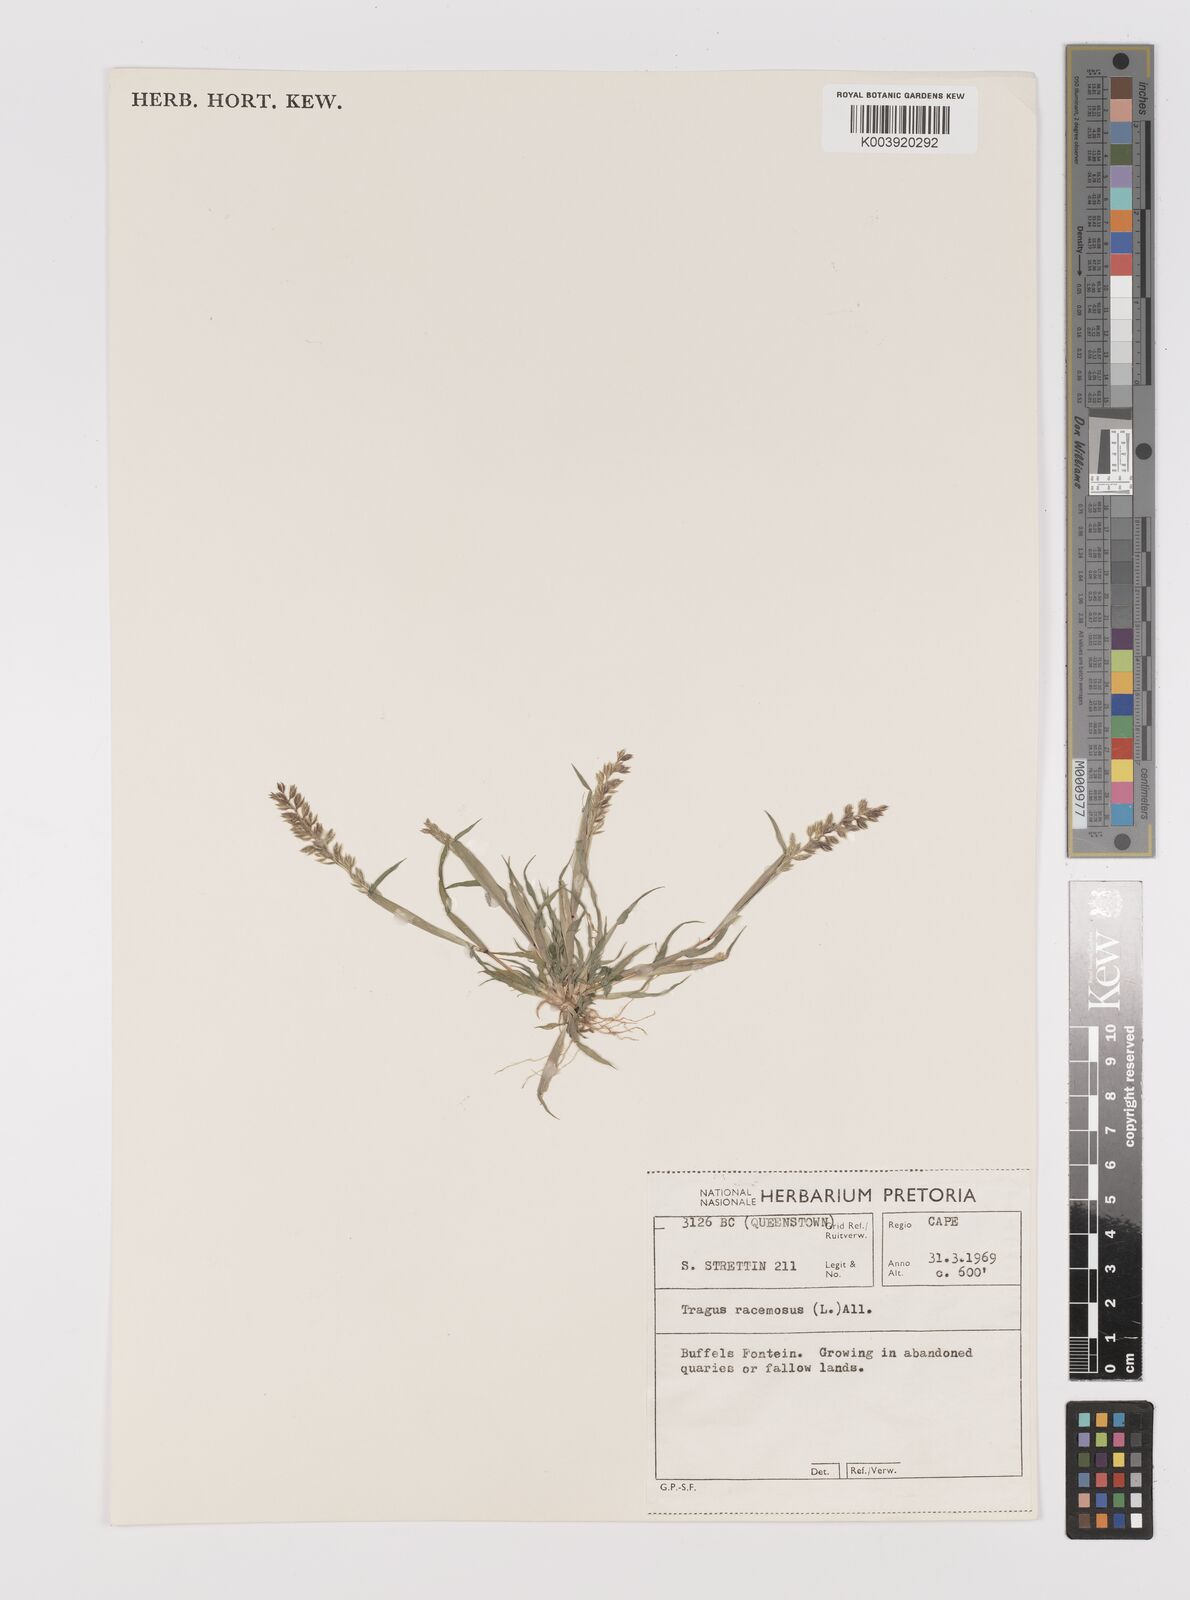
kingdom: Plantae
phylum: Tracheophyta
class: Liliopsida
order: Poales
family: Poaceae
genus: Tragus
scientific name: Tragus racemosus
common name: European bur-grass
